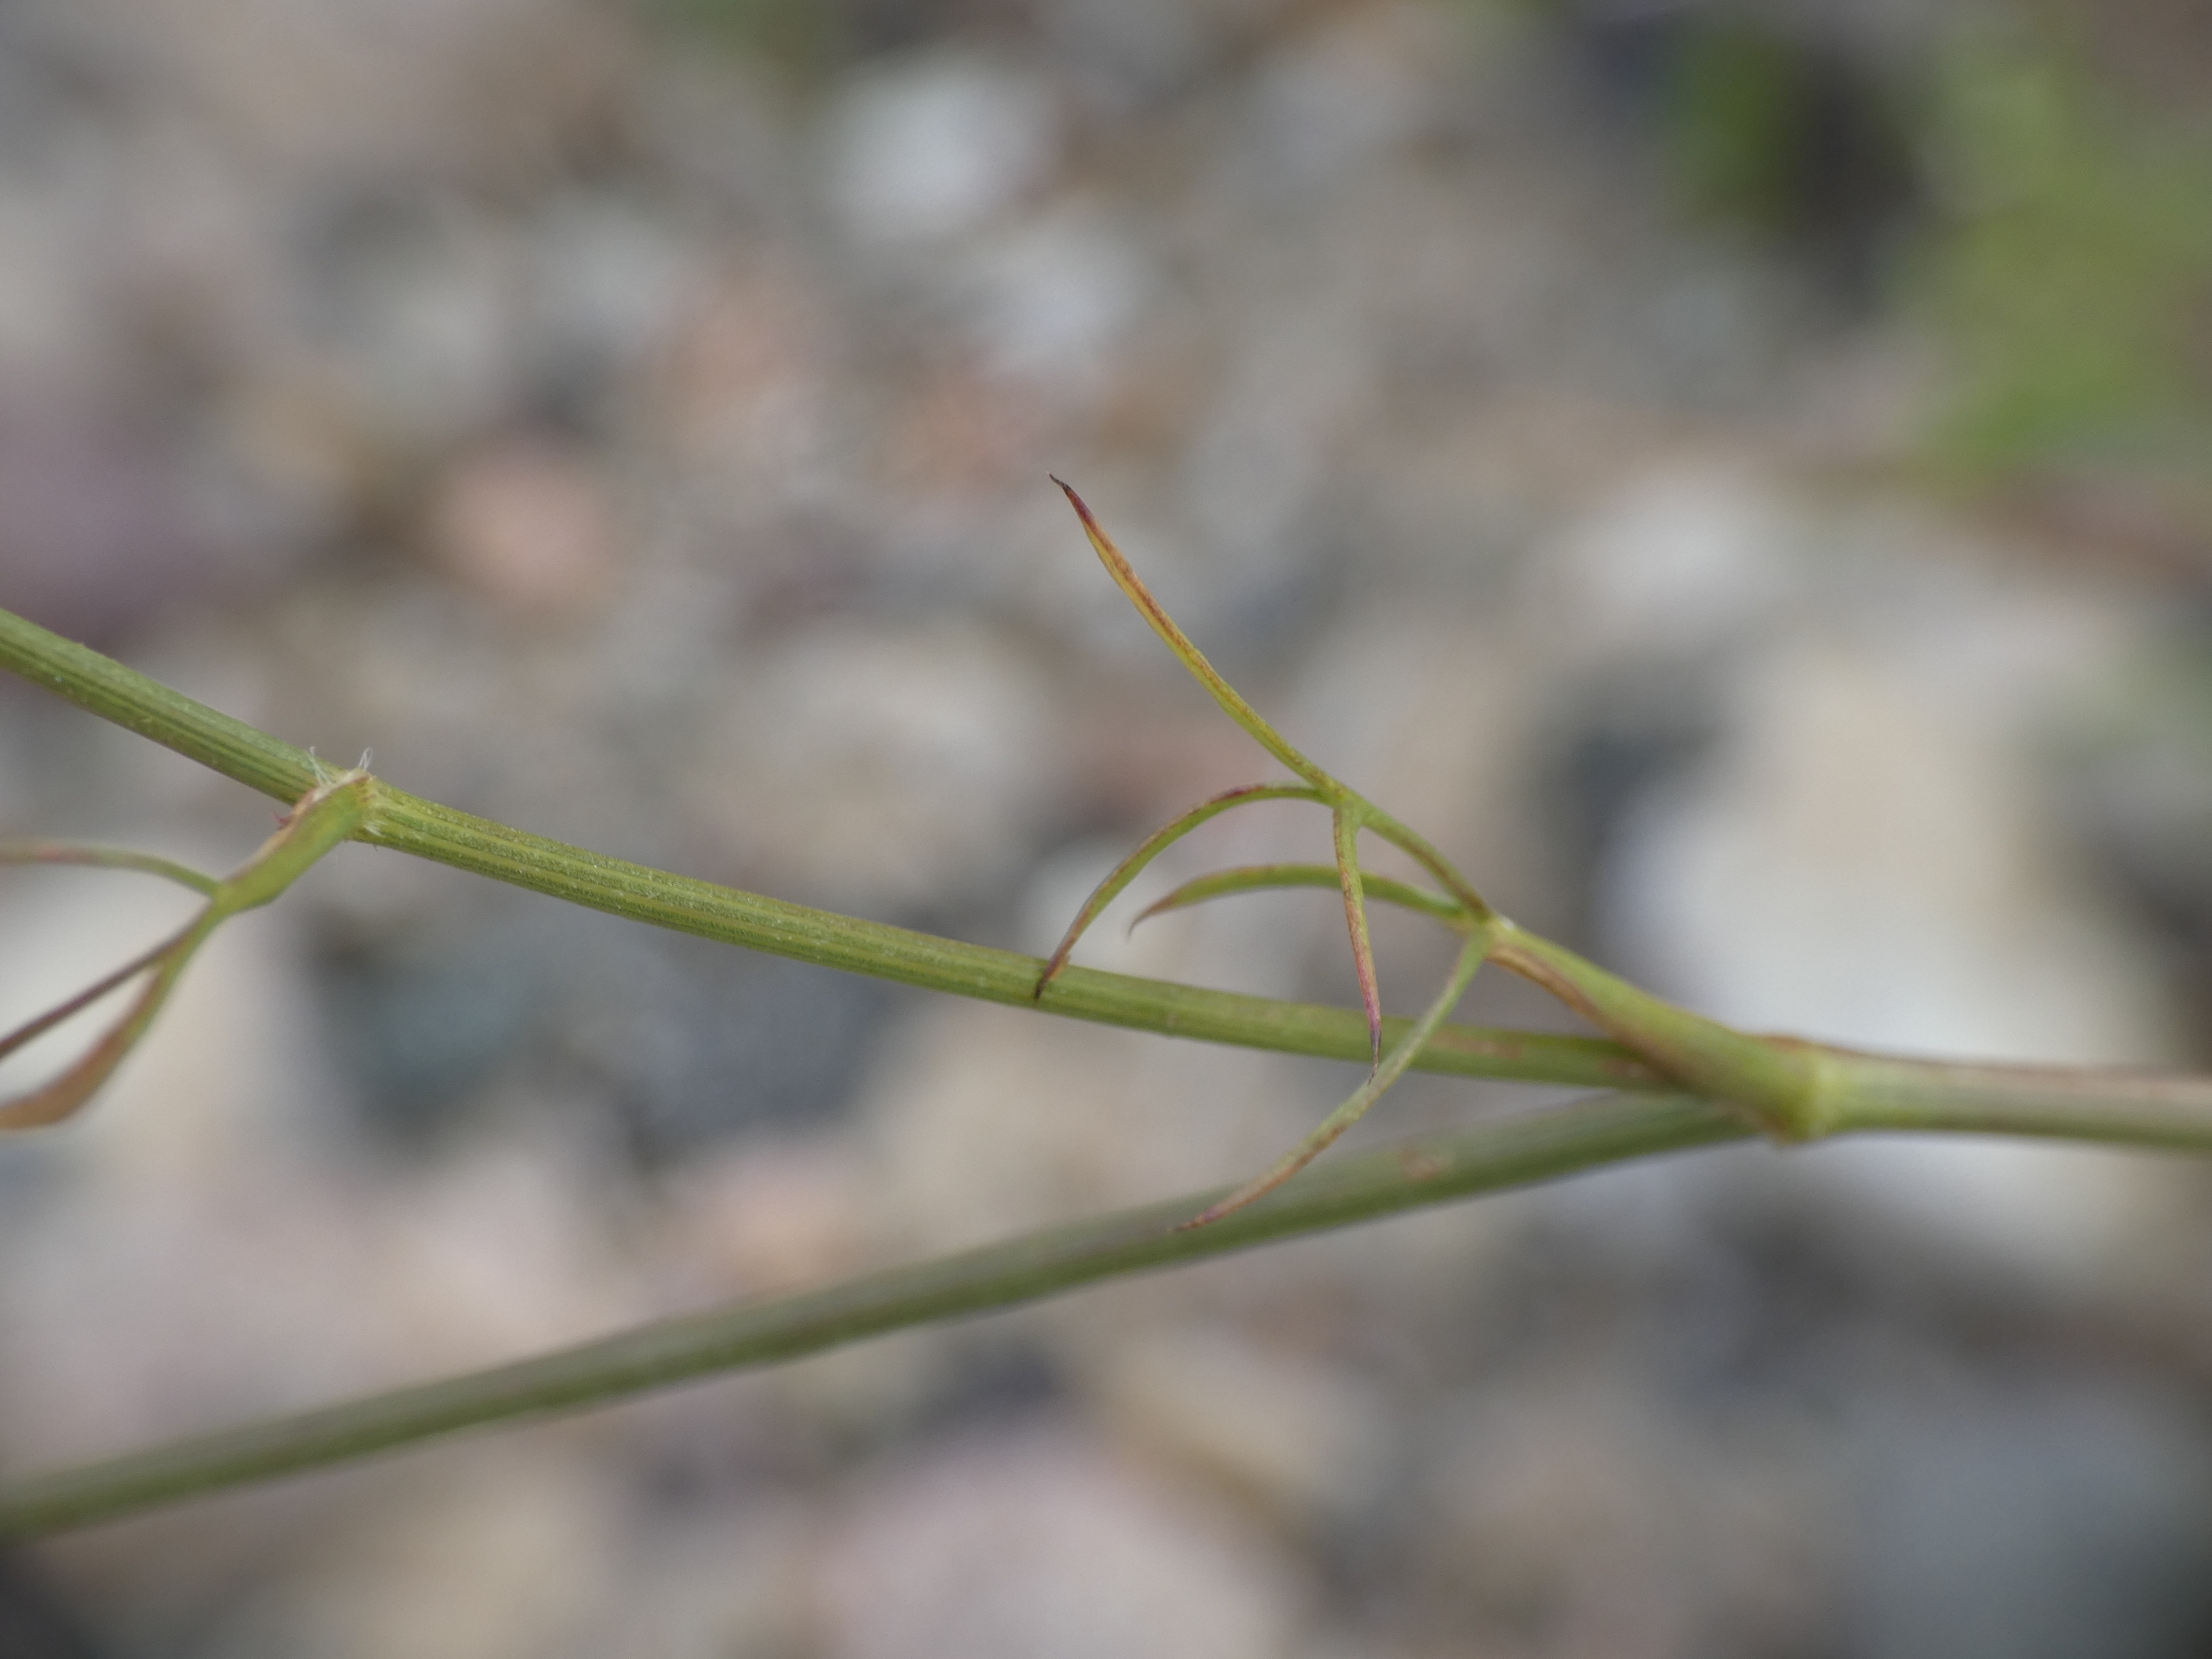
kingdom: Plantae
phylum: Tracheophyta
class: Magnoliopsida
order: Apiales
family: Apiaceae
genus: Daucus
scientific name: Daucus carota
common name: Vild gulerod
